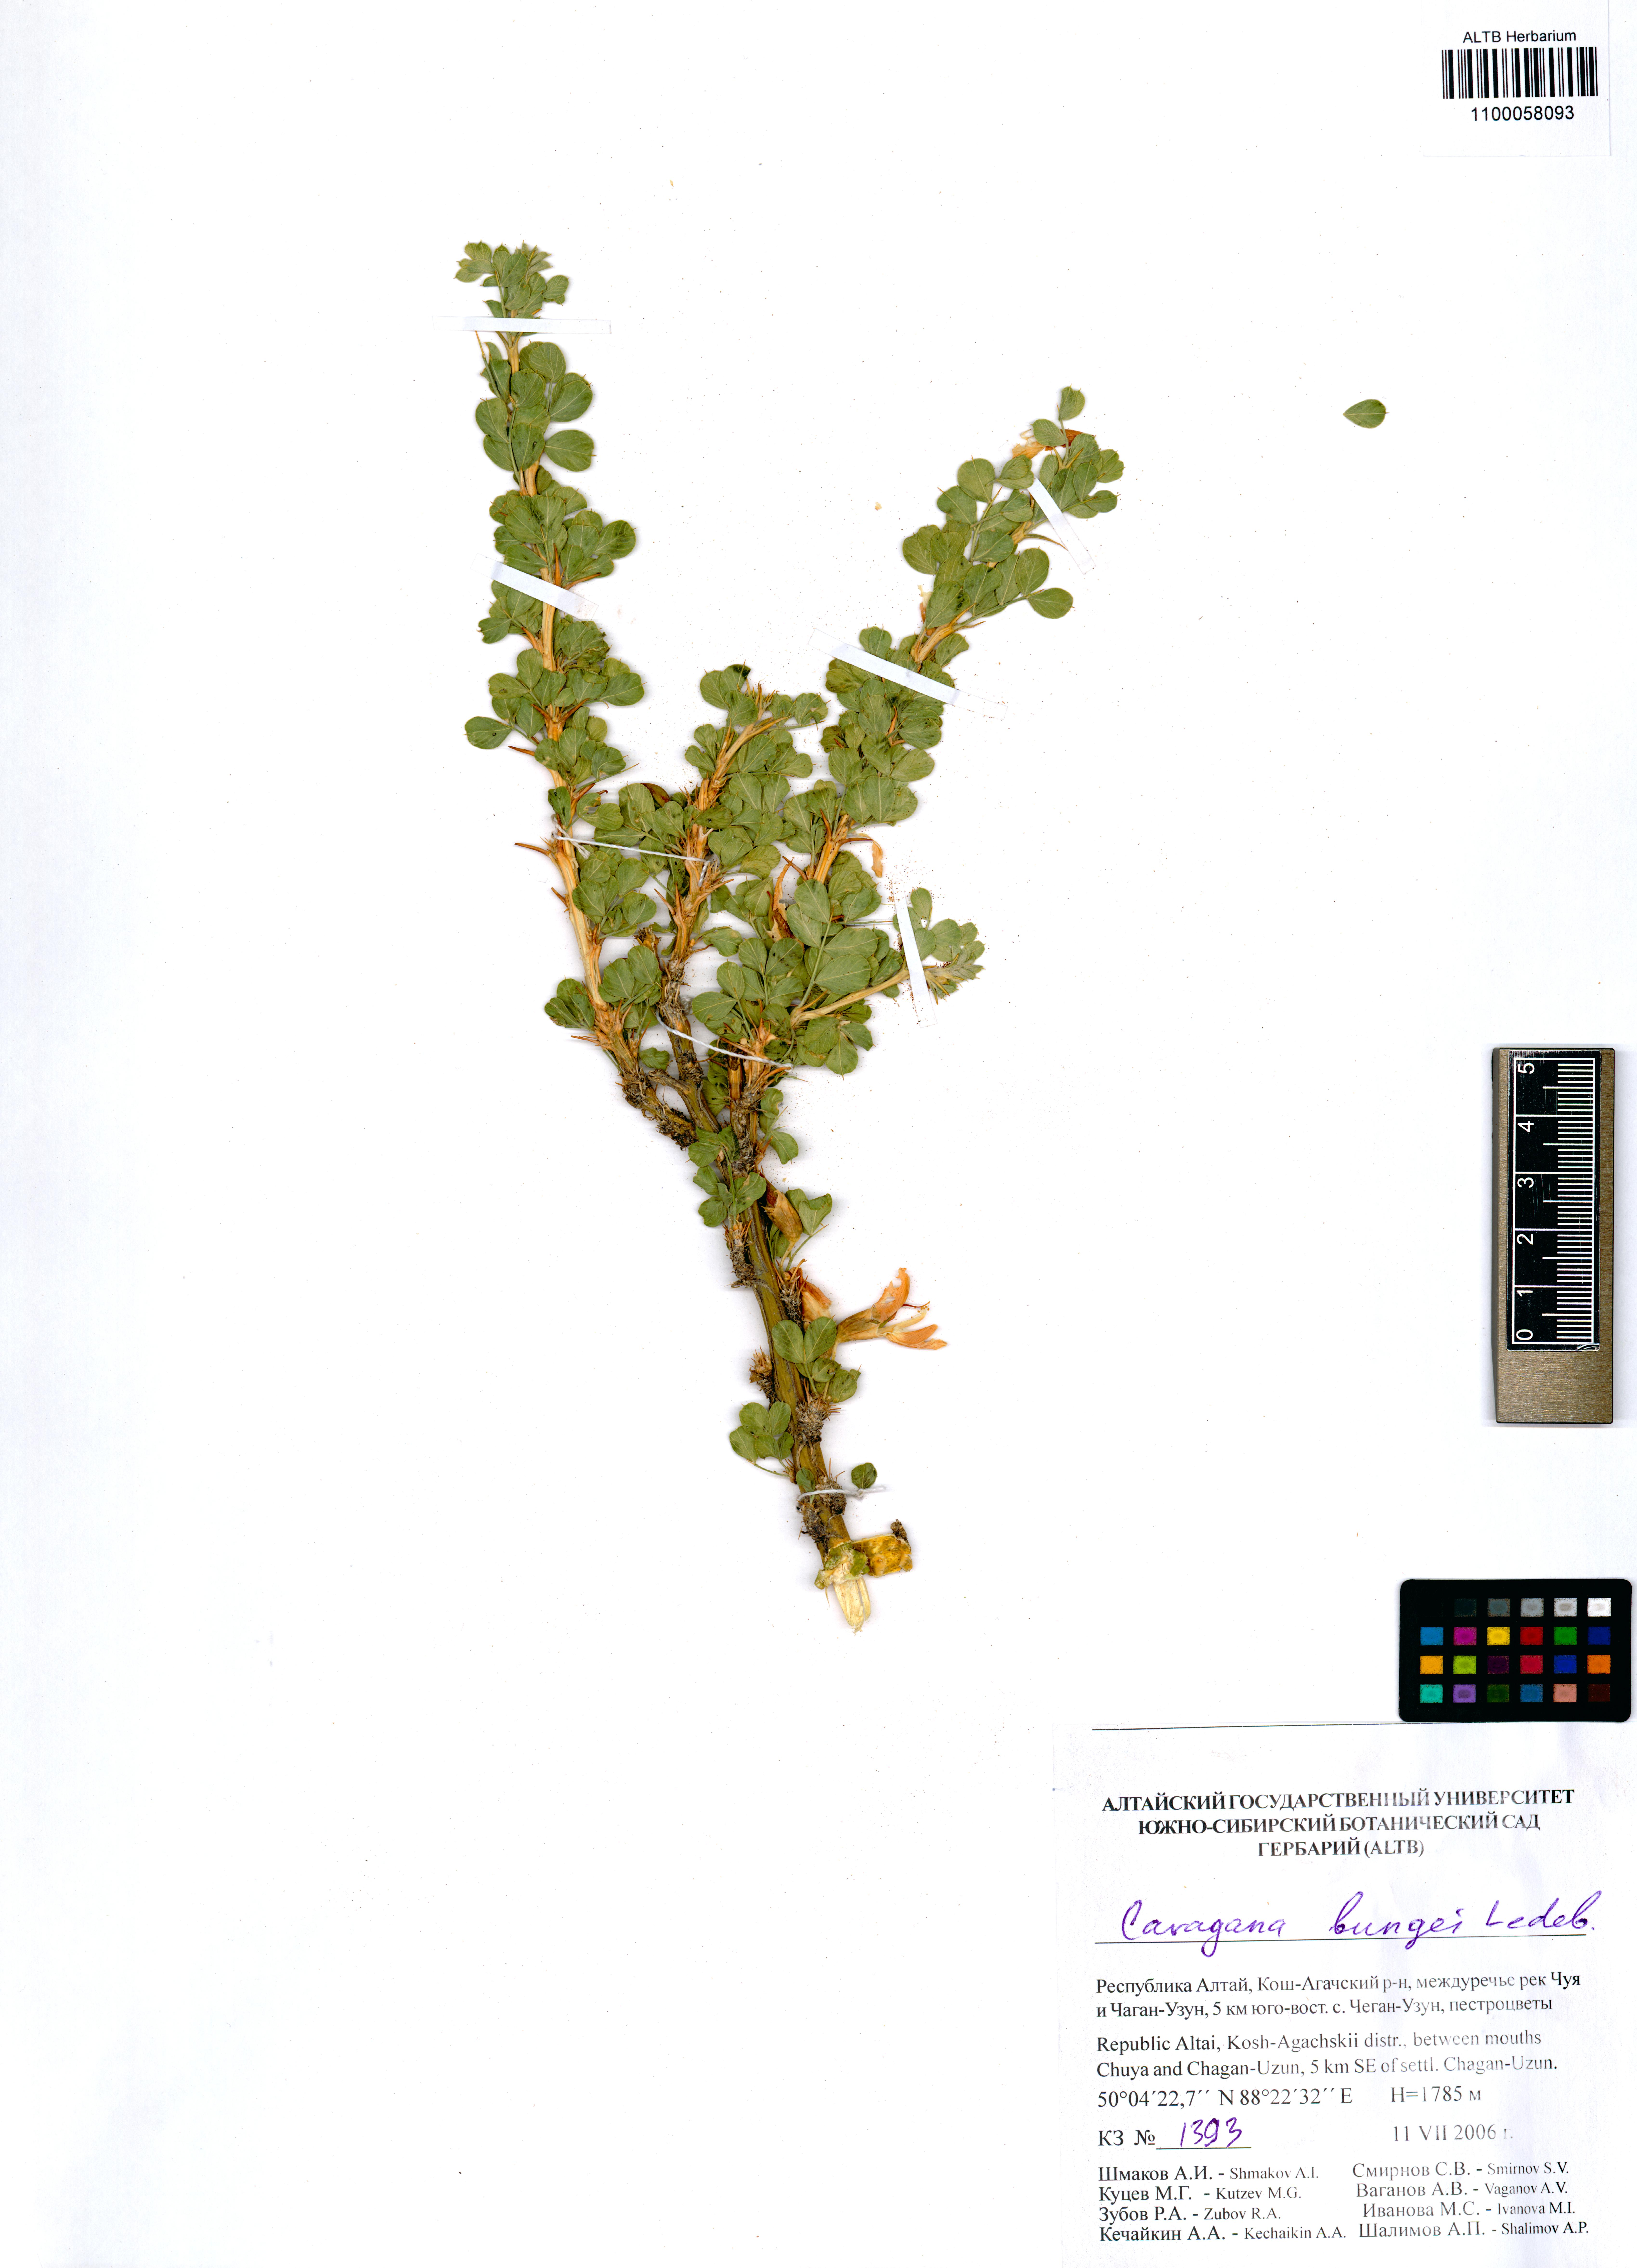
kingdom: Plantae
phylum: Tracheophyta
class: Magnoliopsida
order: Fabales
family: Fabaceae
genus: Caragana
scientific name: Caragana bungei
